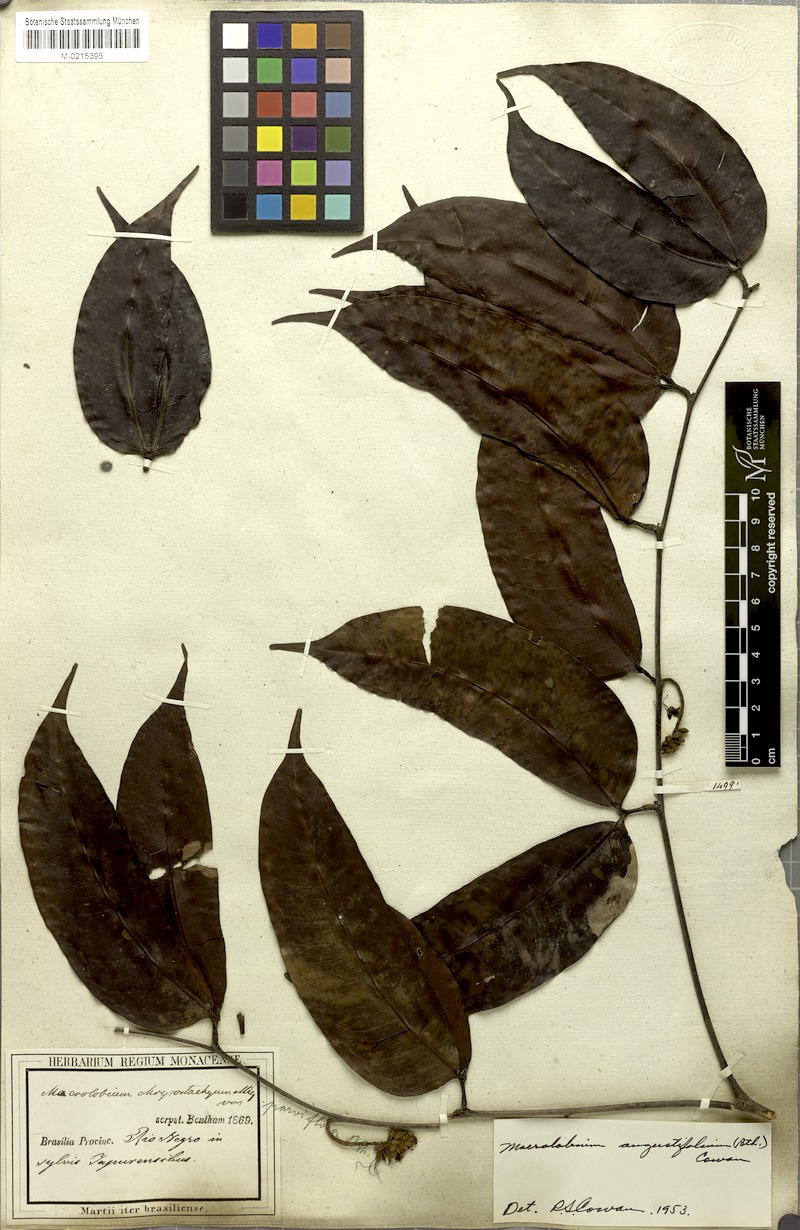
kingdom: Plantae
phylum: Tracheophyta
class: Magnoliopsida
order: Fabales
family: Fabaceae
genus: Macrolobium
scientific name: Macrolobium angustifolium
